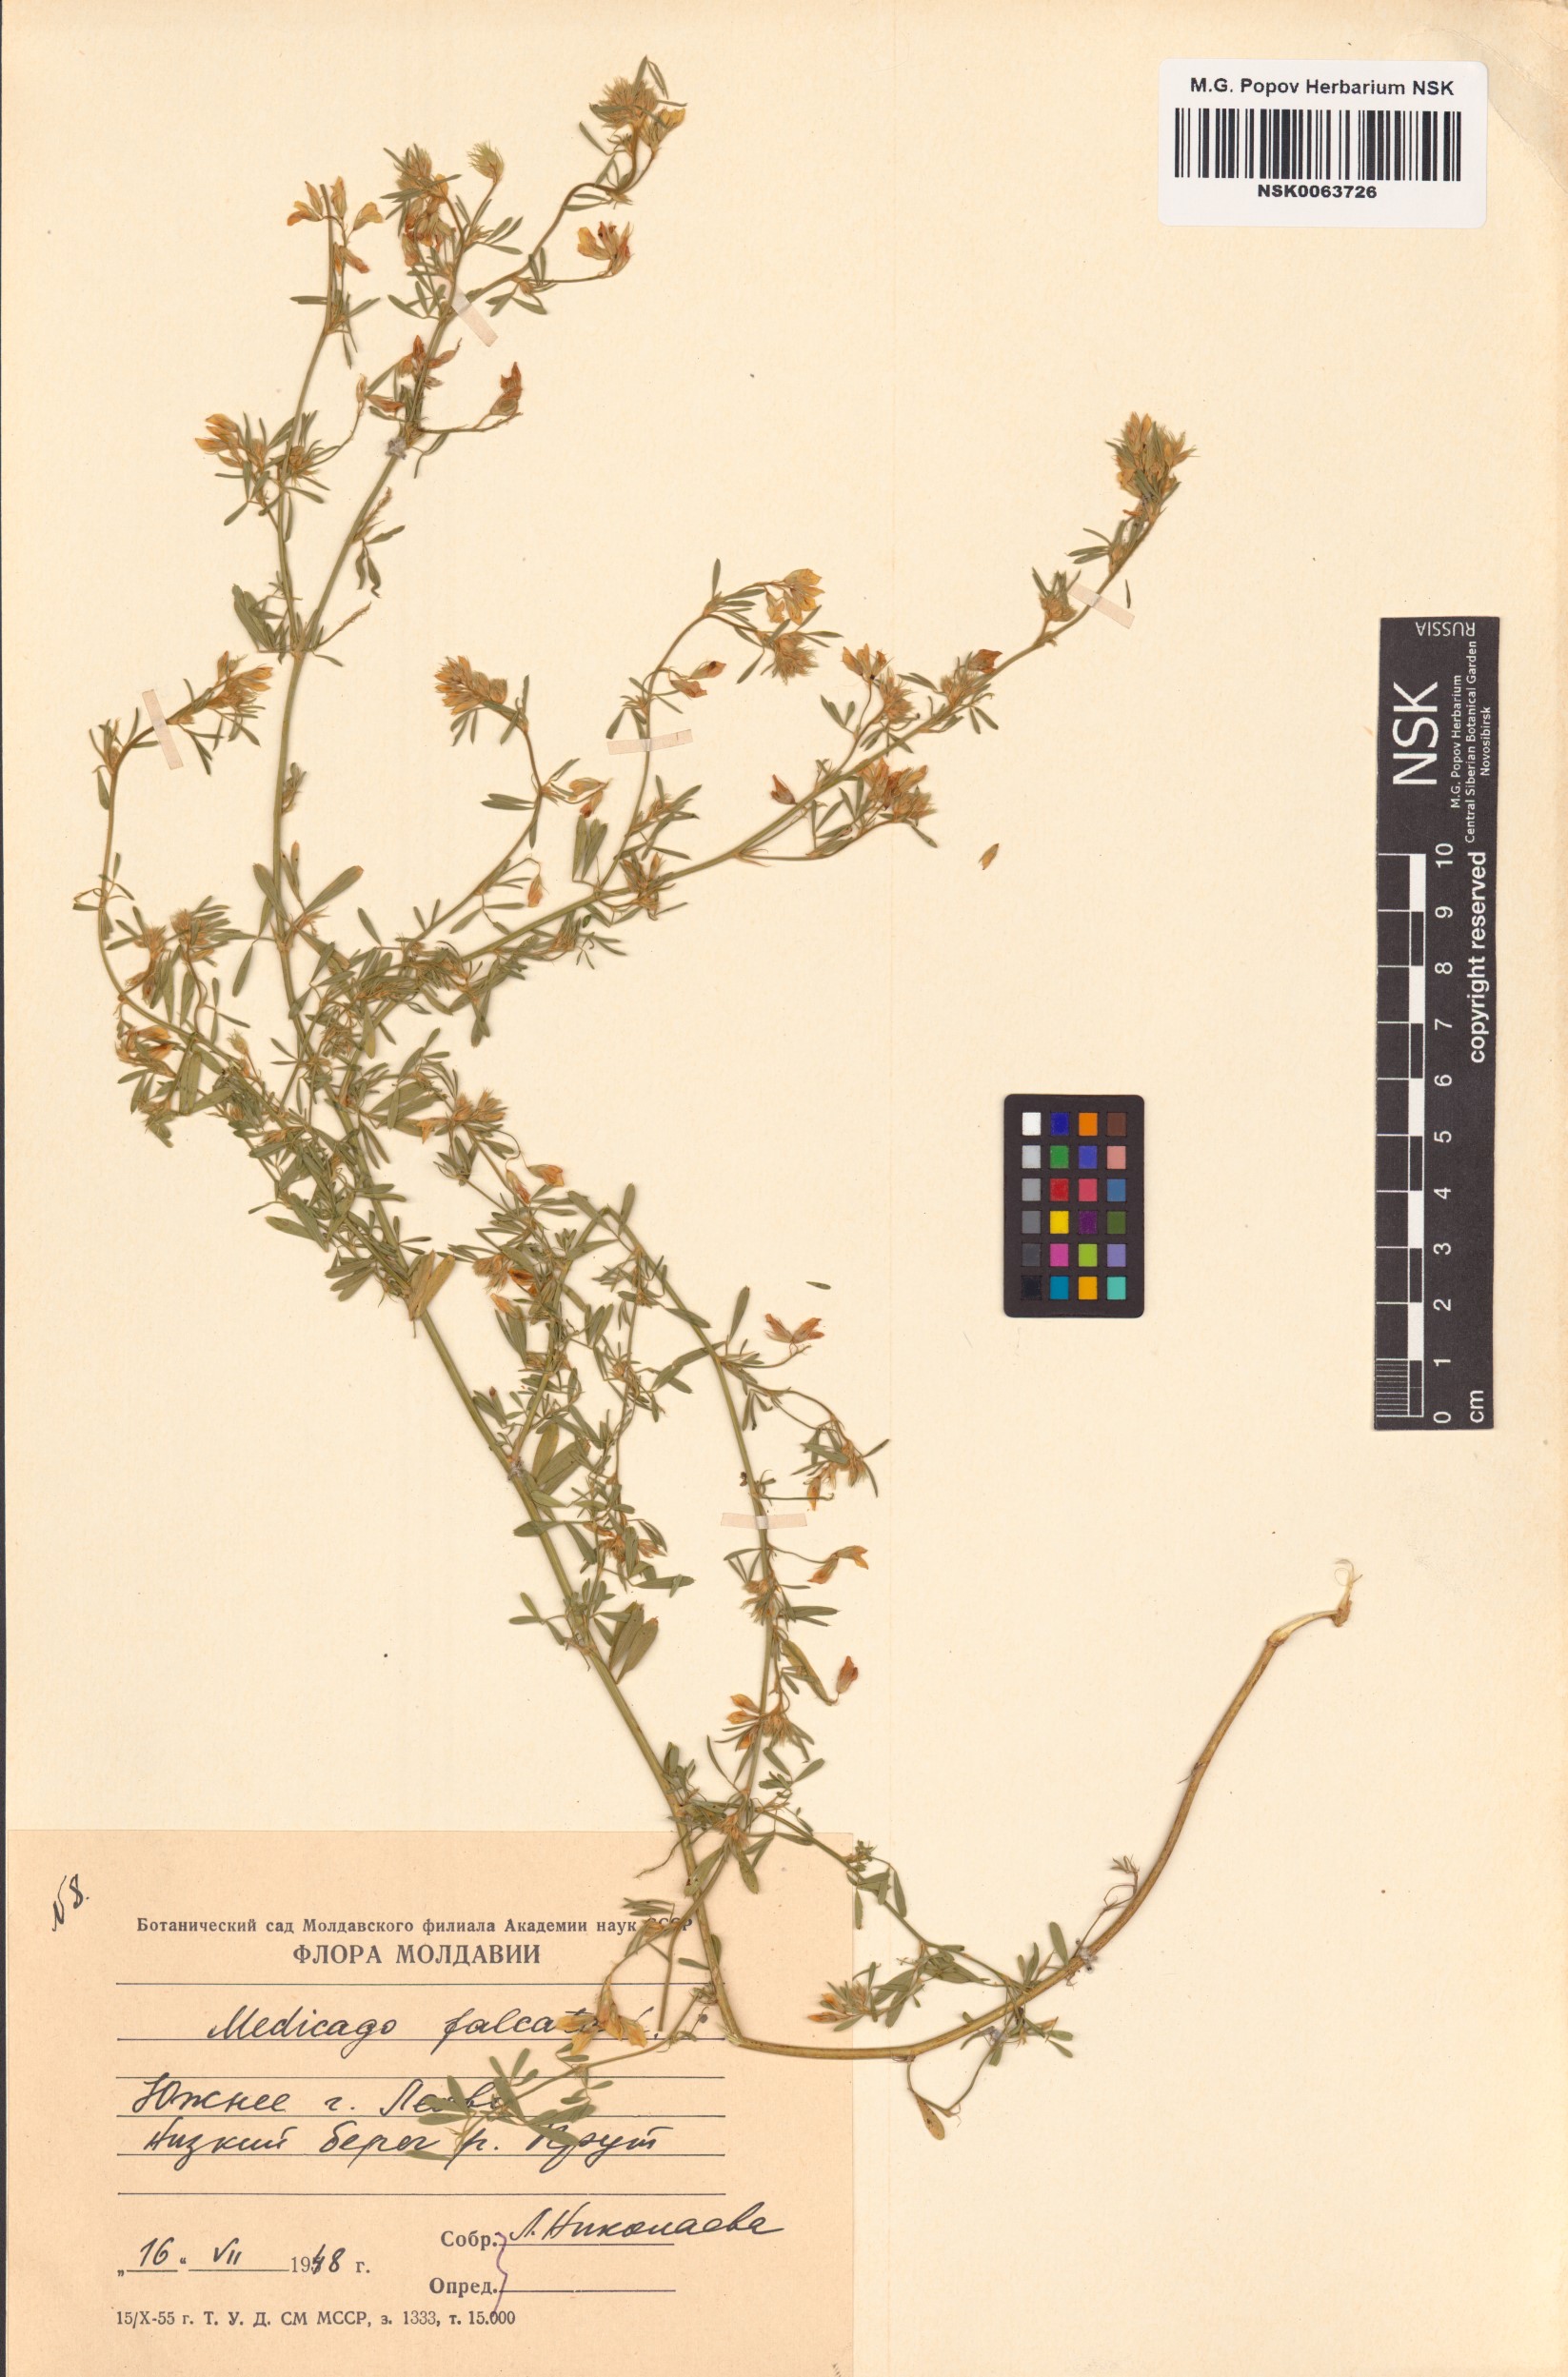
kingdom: Plantae
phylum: Tracheophyta
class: Magnoliopsida
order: Fabales
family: Fabaceae
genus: Medicago
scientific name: Medicago falcata
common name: Sickle medick
